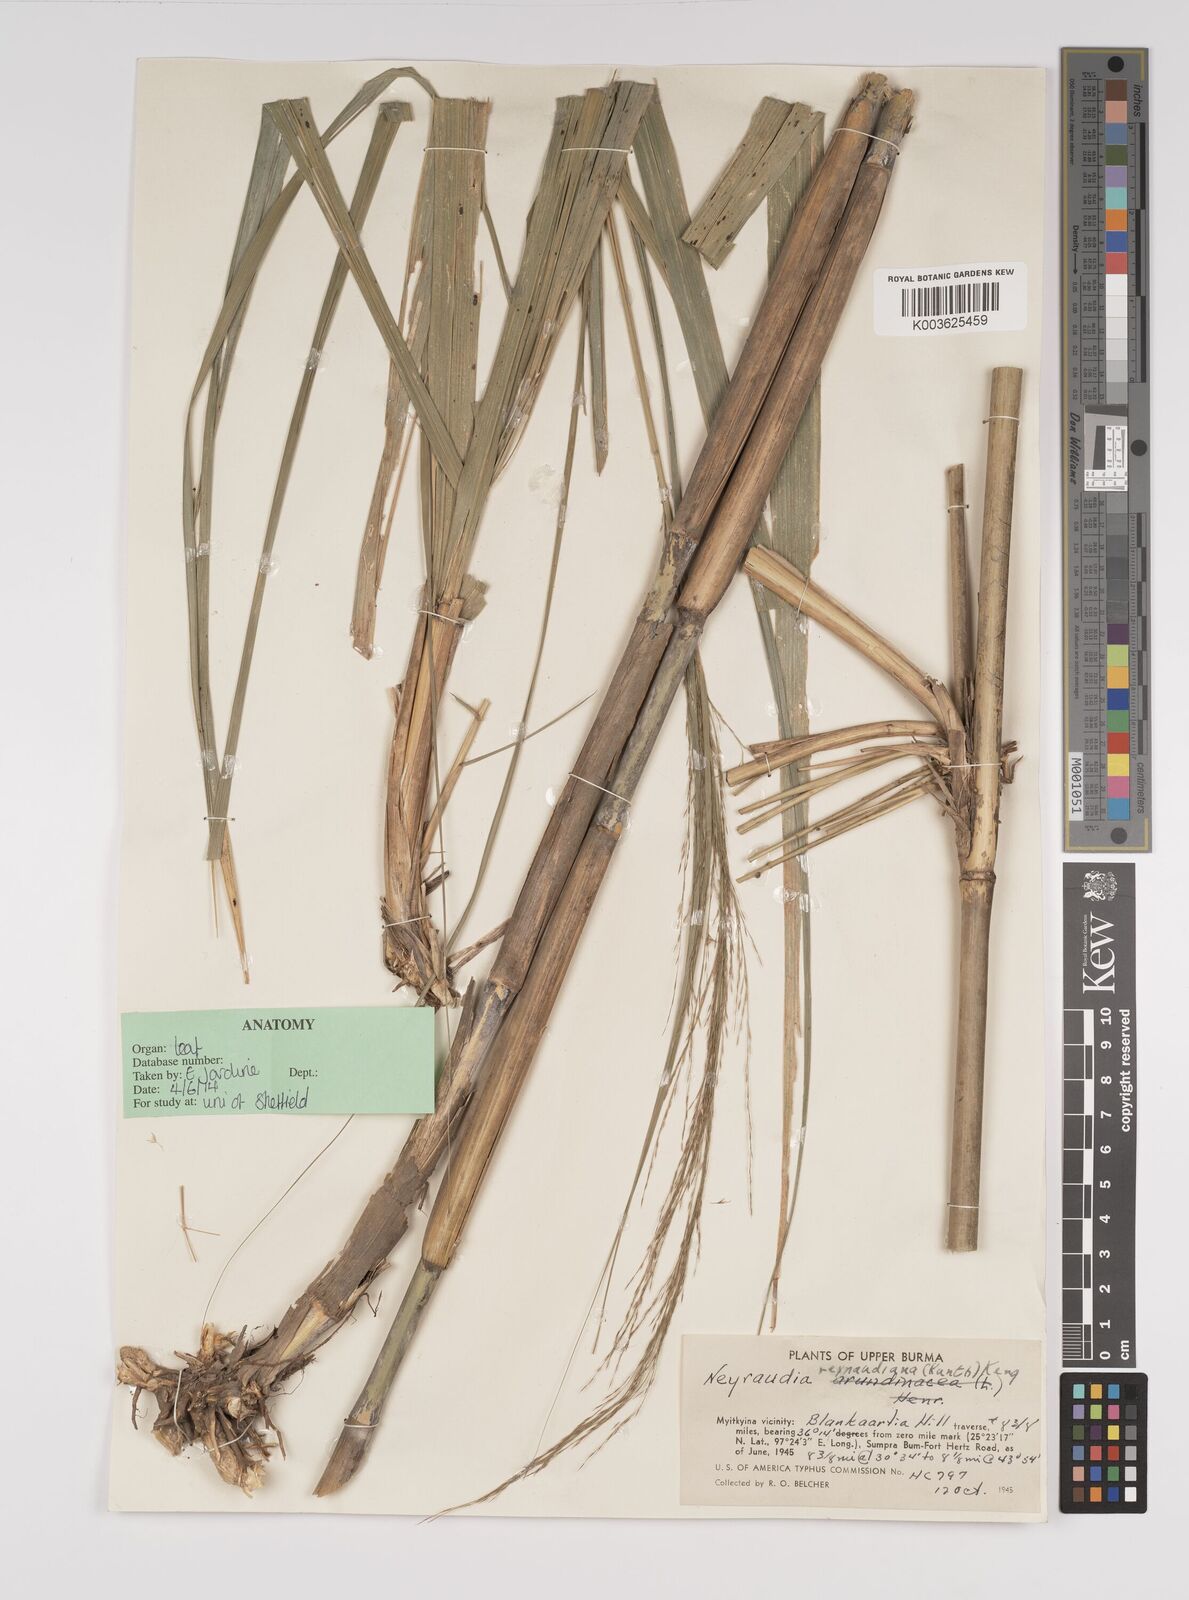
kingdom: Plantae
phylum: Tracheophyta
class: Liliopsida
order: Poales
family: Poaceae
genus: Neyraudia
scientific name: Neyraudia reynaudiana
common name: Silkreed
